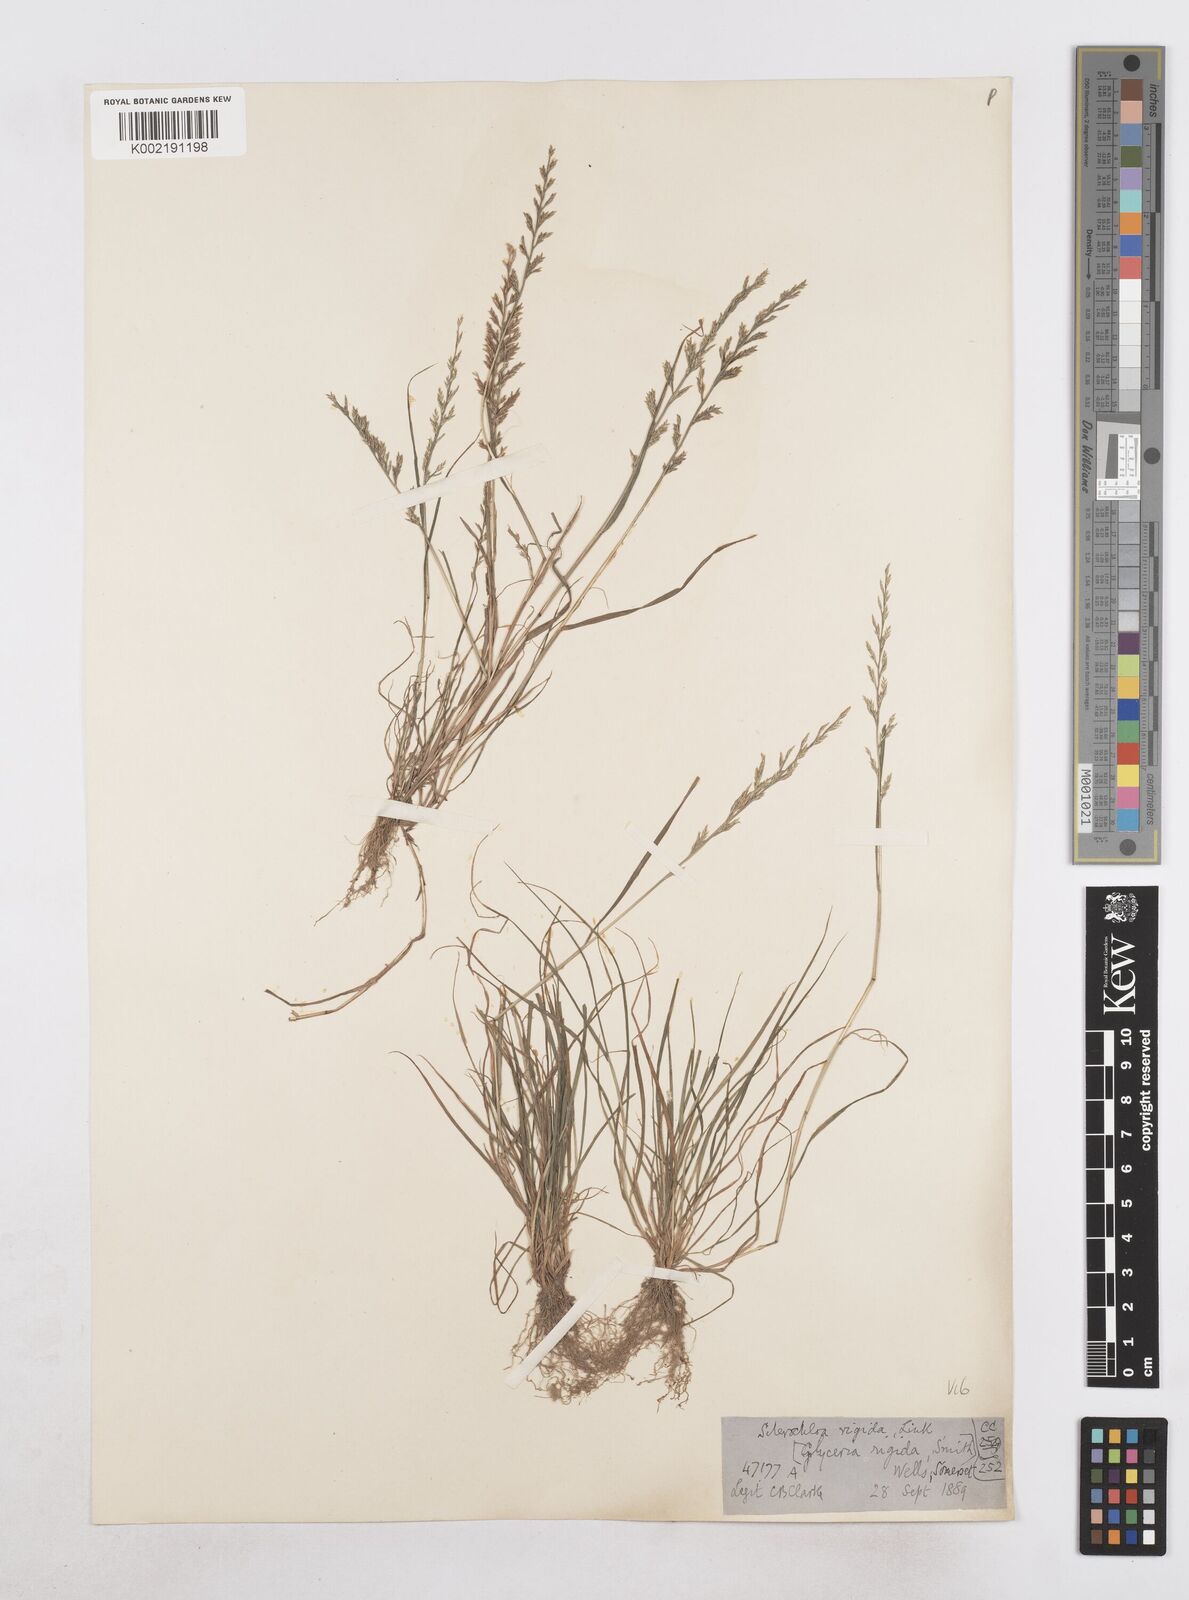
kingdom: Plantae
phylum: Tracheophyta
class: Liliopsida
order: Poales
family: Poaceae
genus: Catapodium
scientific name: Catapodium rigidum
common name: Fern-grass
